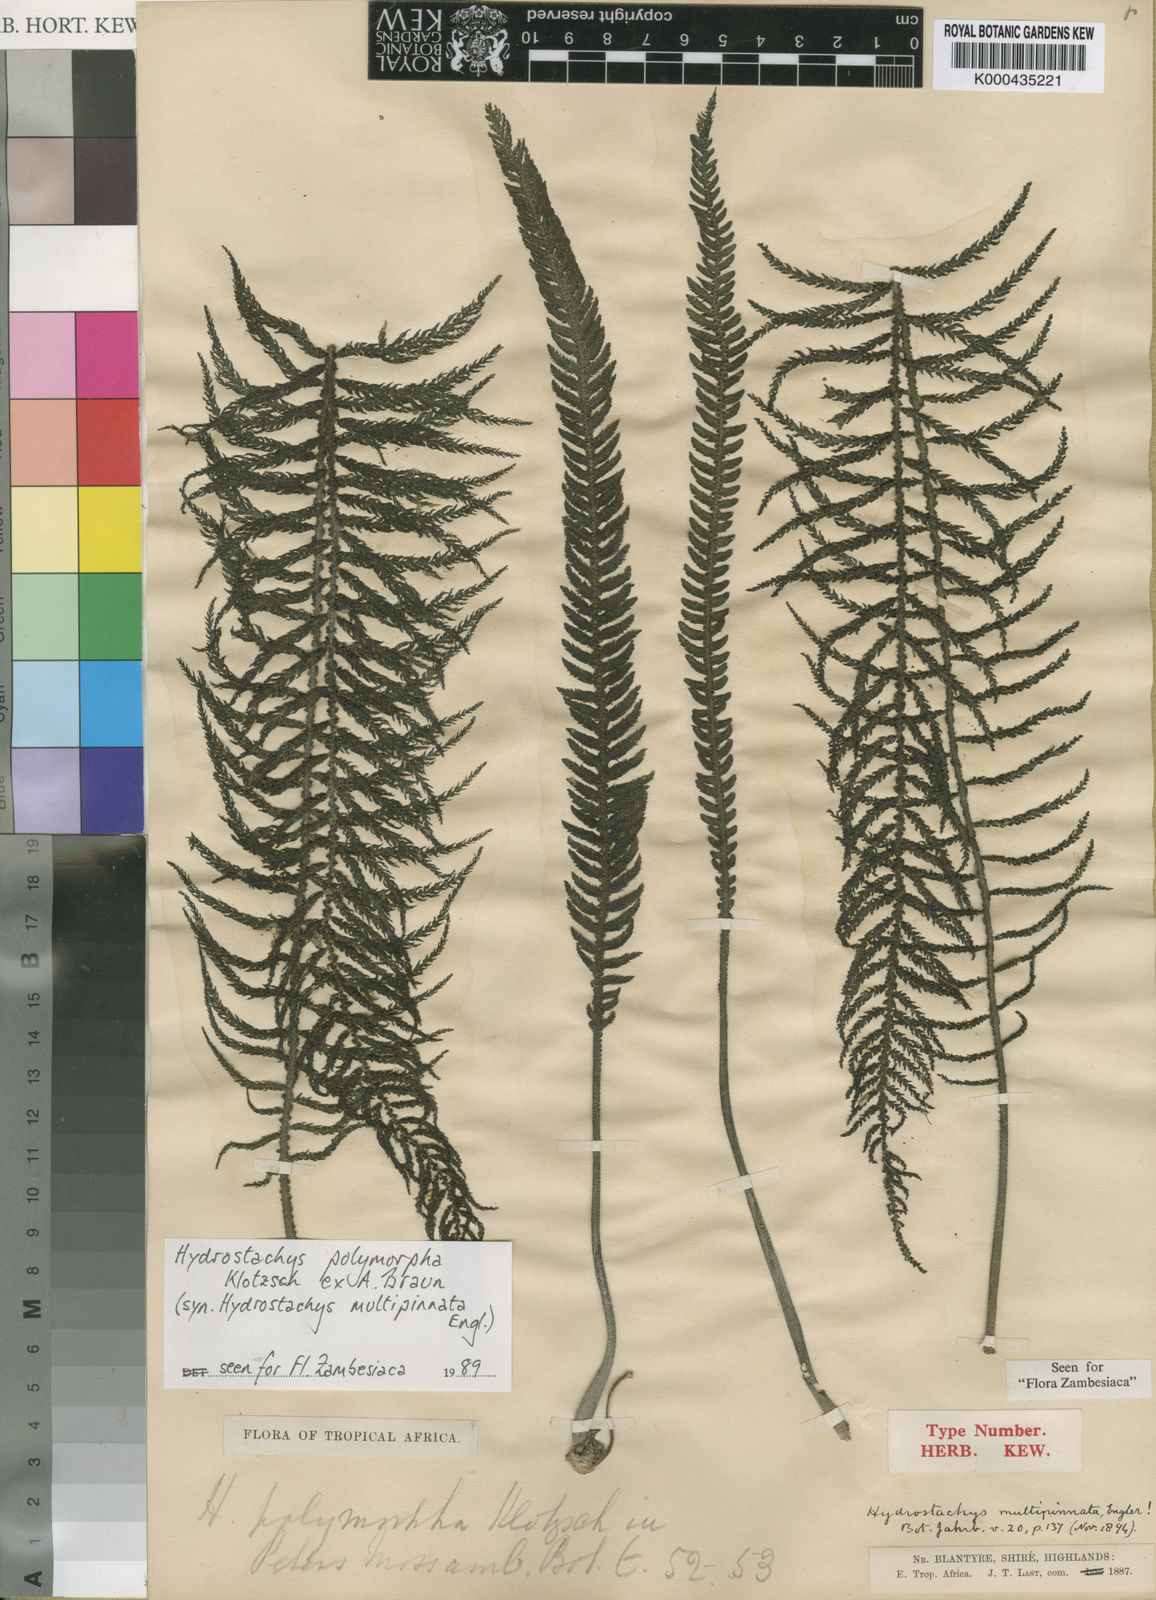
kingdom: Plantae
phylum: Tracheophyta
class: Magnoliopsida
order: Cornales
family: Hydrostachyaceae
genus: Hydrostachys
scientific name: Hydrostachys
